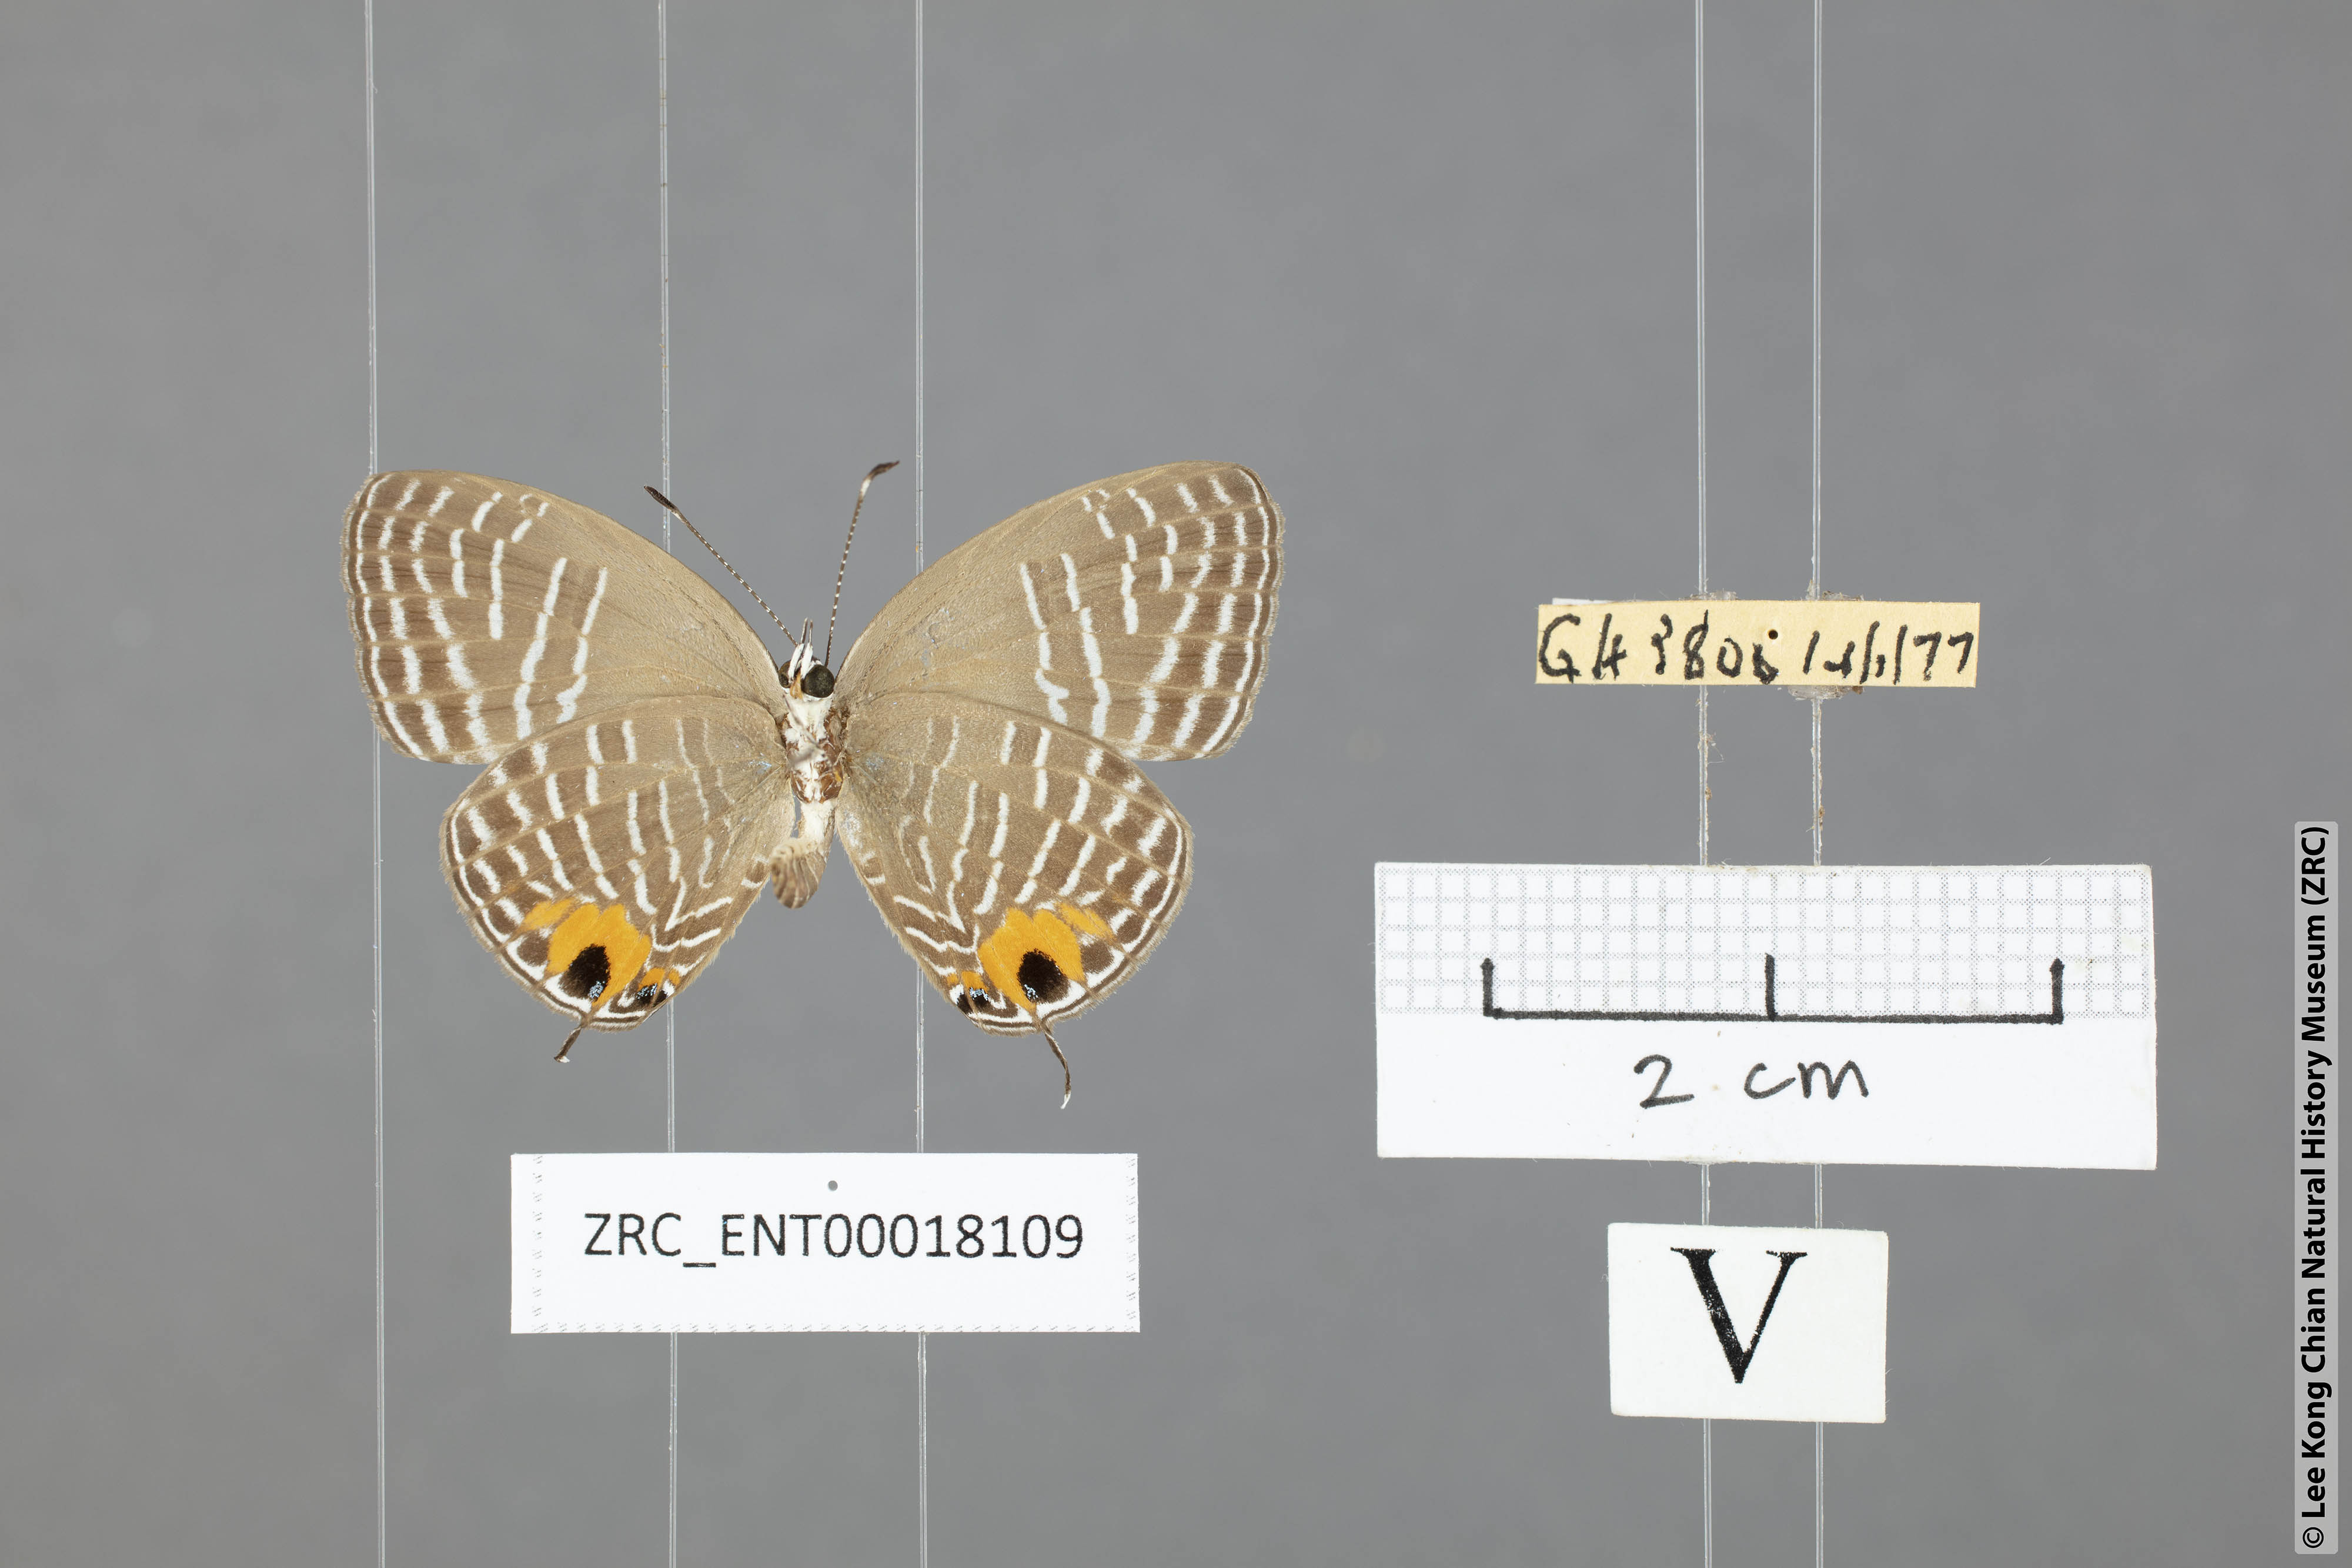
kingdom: Animalia
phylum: Arthropoda
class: Insecta
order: Lepidoptera
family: Lycaenidae
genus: Jamides
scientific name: Jamides
